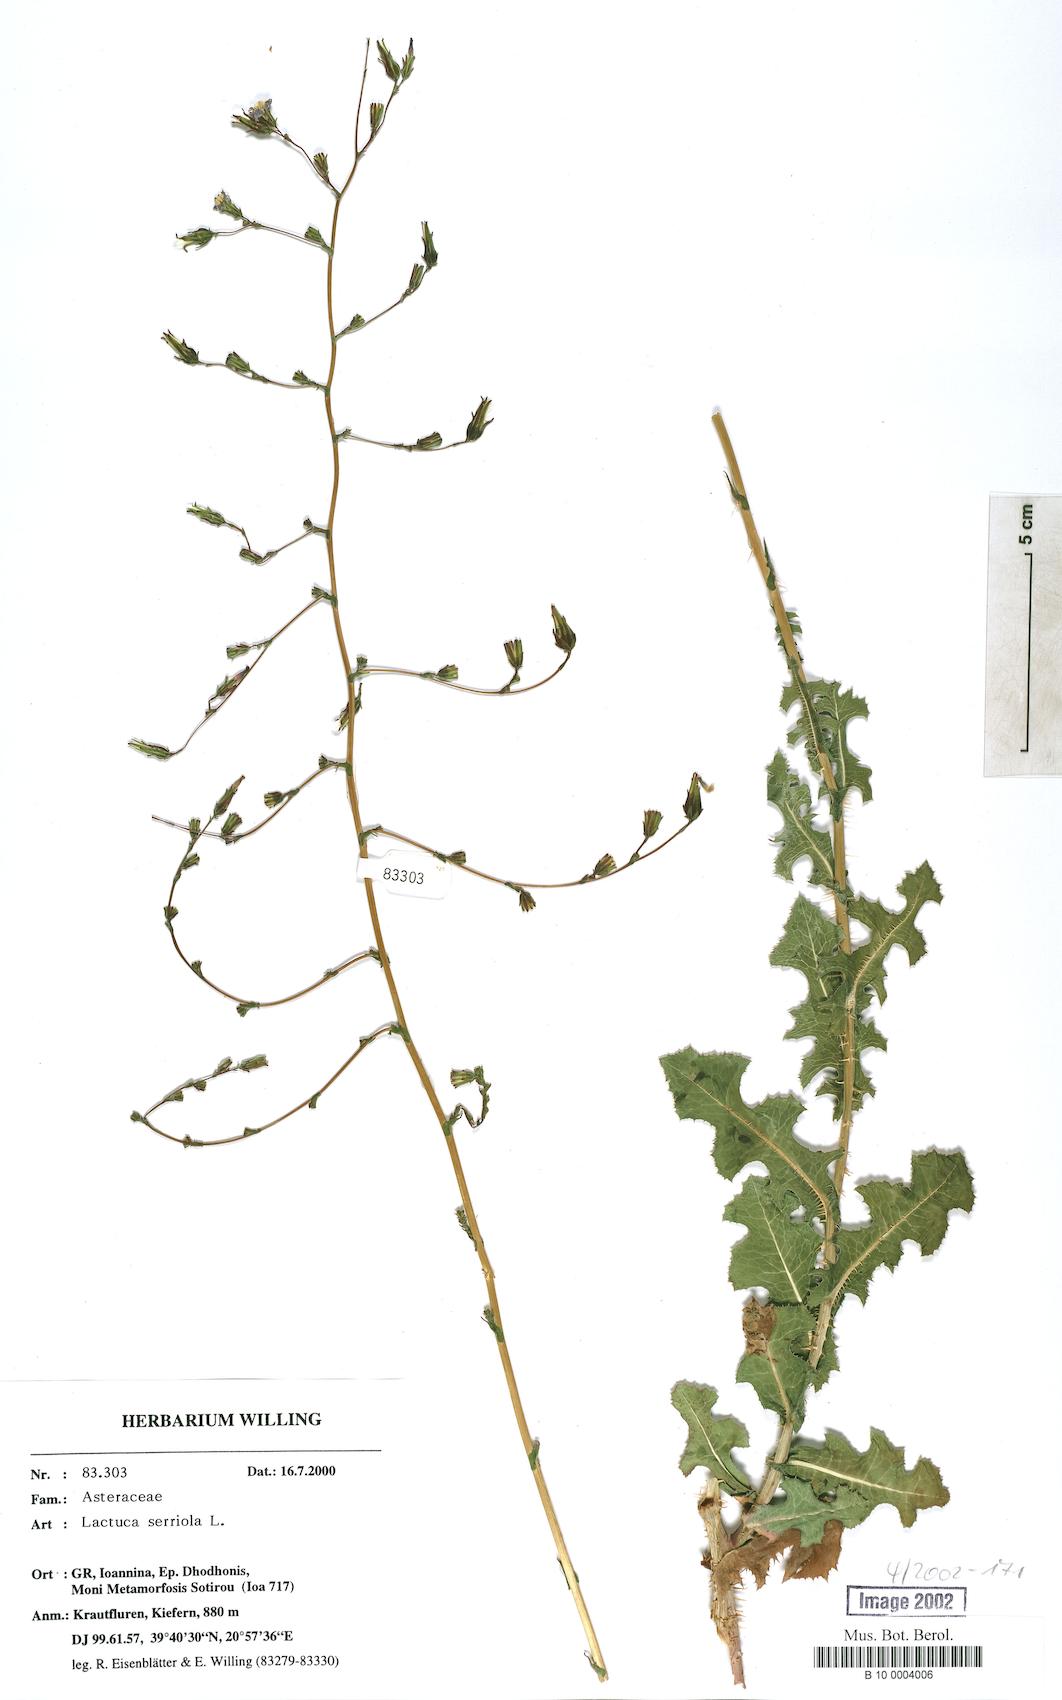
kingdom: Plantae
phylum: Tracheophyta
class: Magnoliopsida
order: Asterales
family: Asteraceae
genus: Lactuca
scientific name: Lactuca serriola
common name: Prickly lettuce
